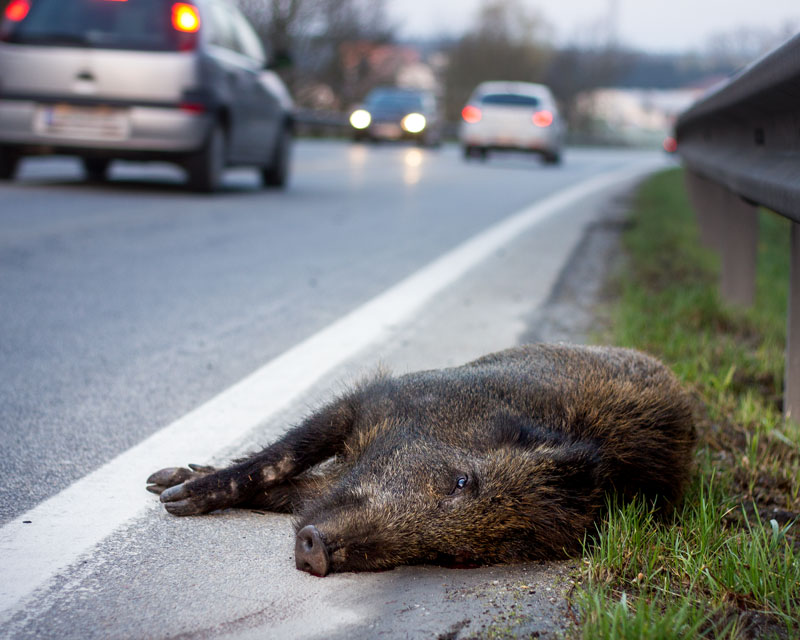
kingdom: Animalia
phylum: Chordata
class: Mammalia
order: Artiodactyla
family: Suidae
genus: Sus
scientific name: Sus scrofa
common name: Wild boar
